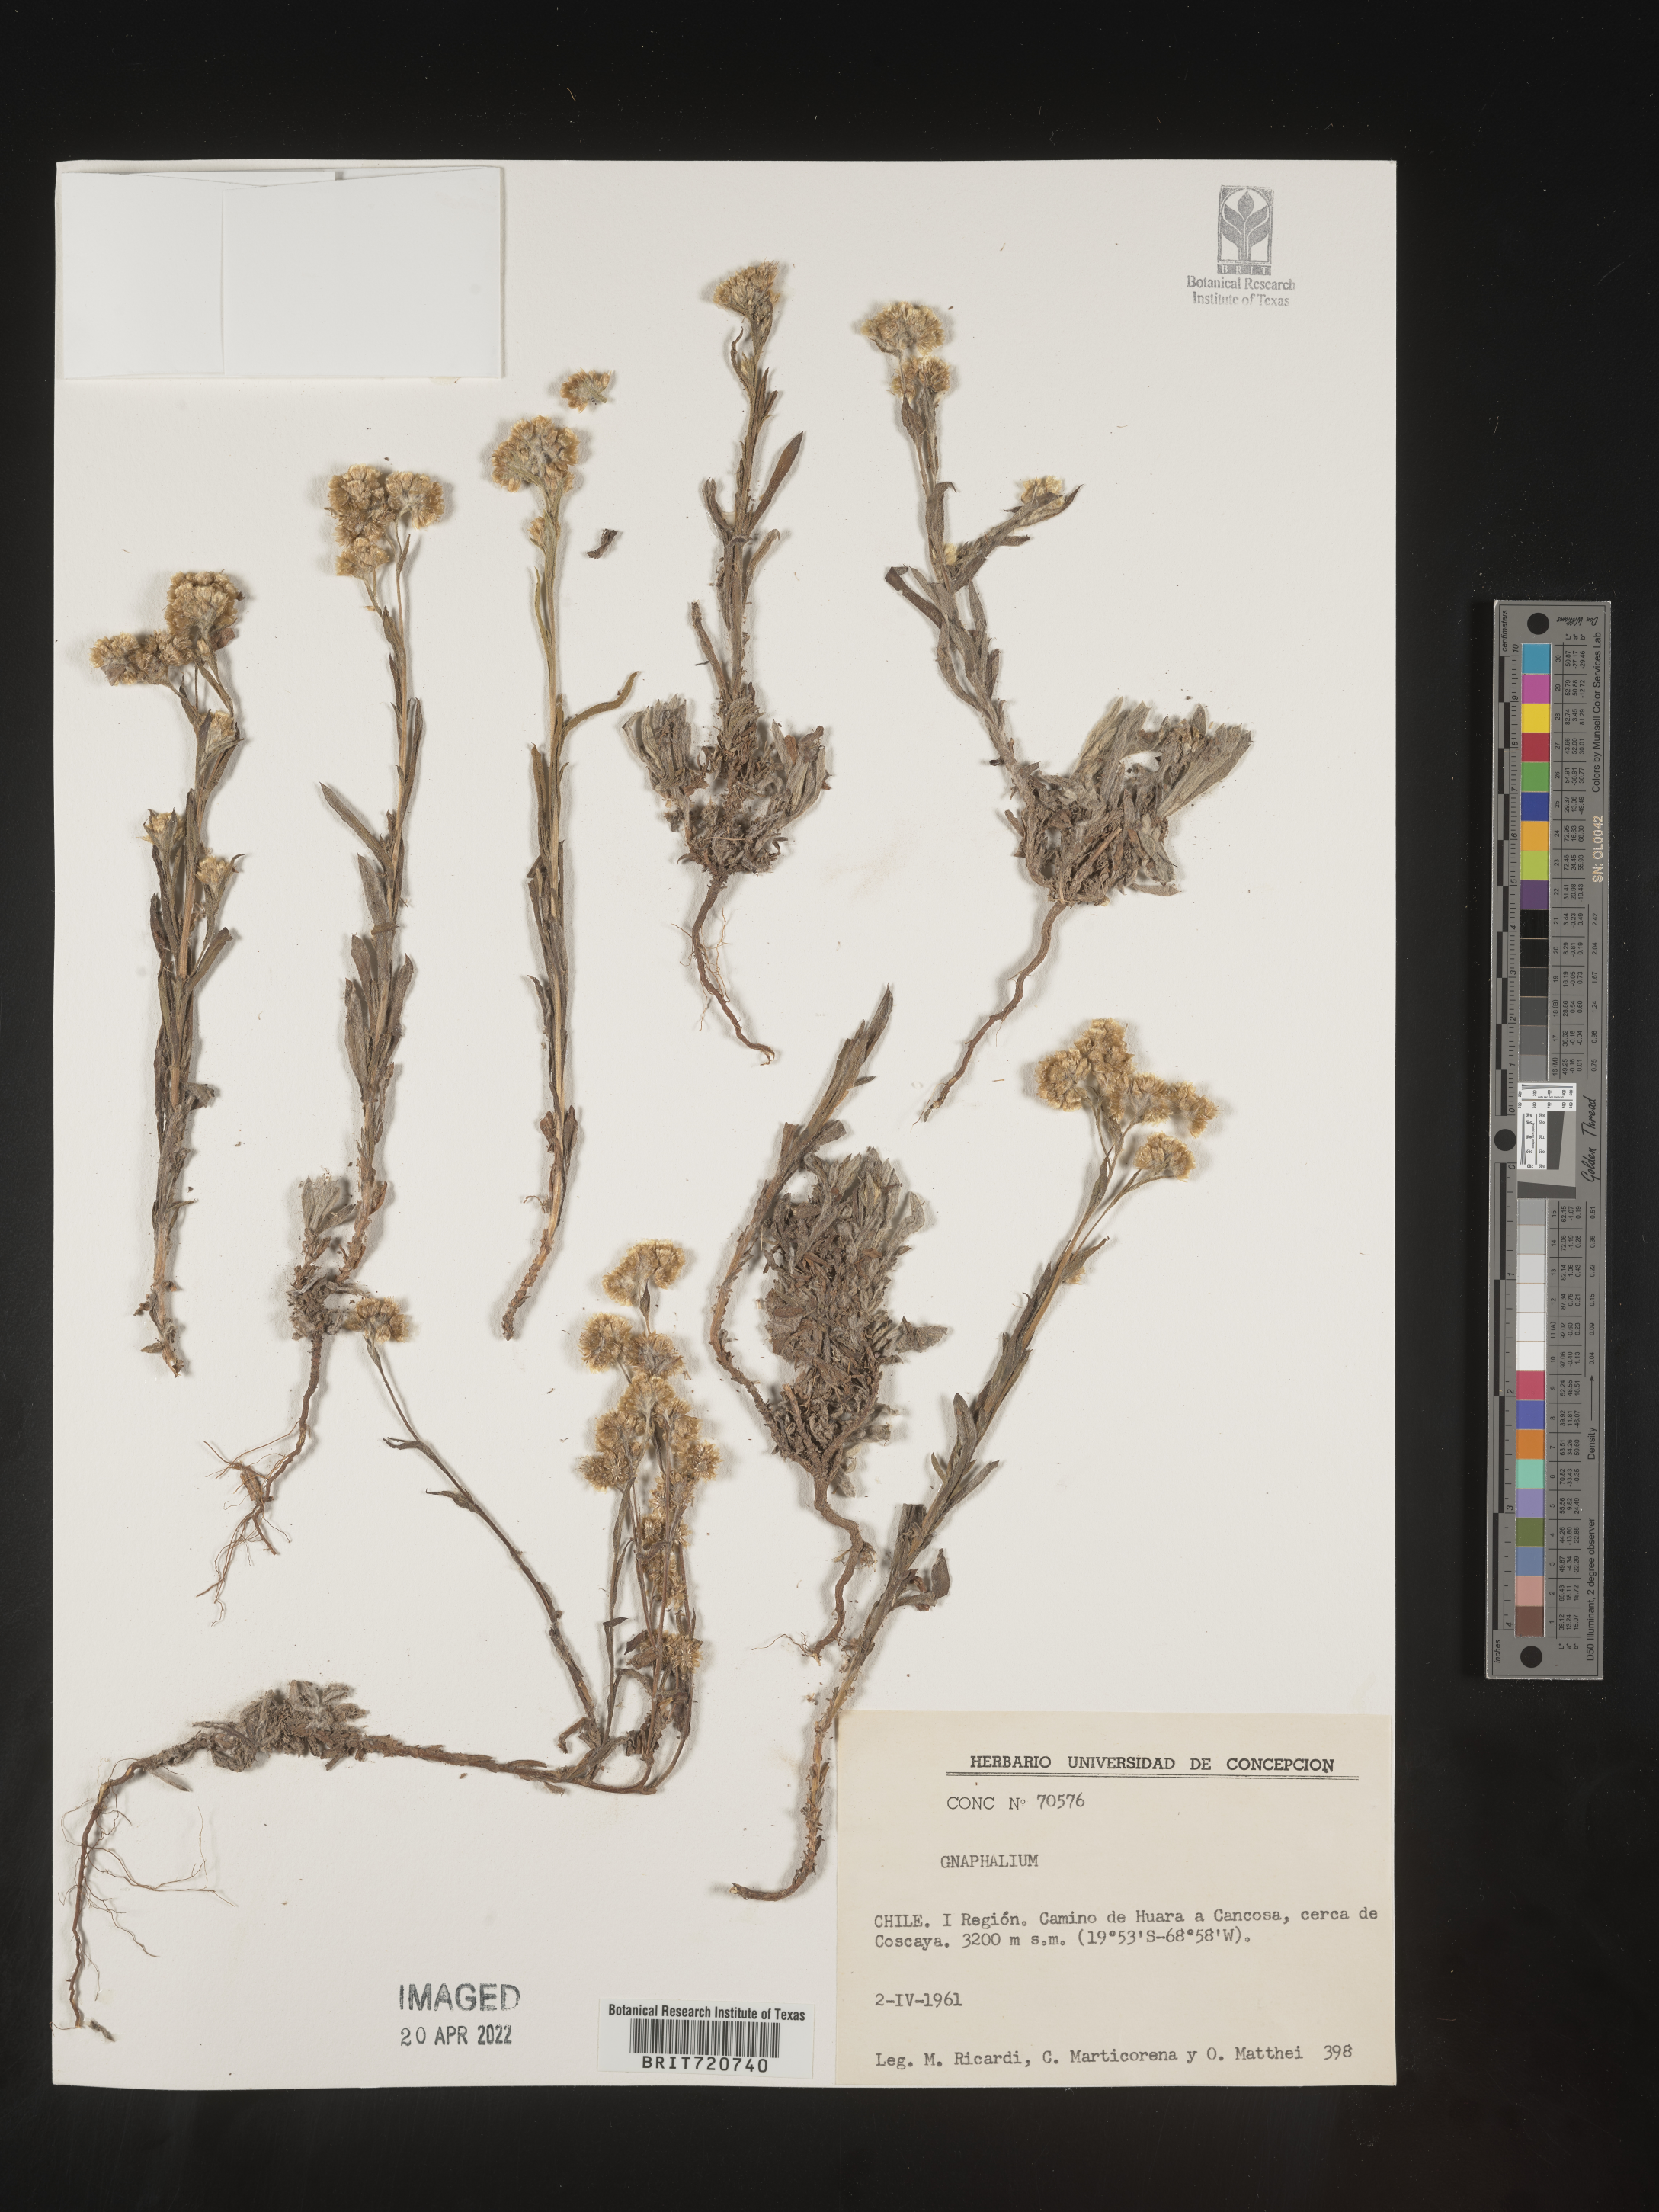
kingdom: Plantae
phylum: Tracheophyta
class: Magnoliopsida
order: Asterales
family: Asteraceae
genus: Gnaphalium
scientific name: Gnaphalium
